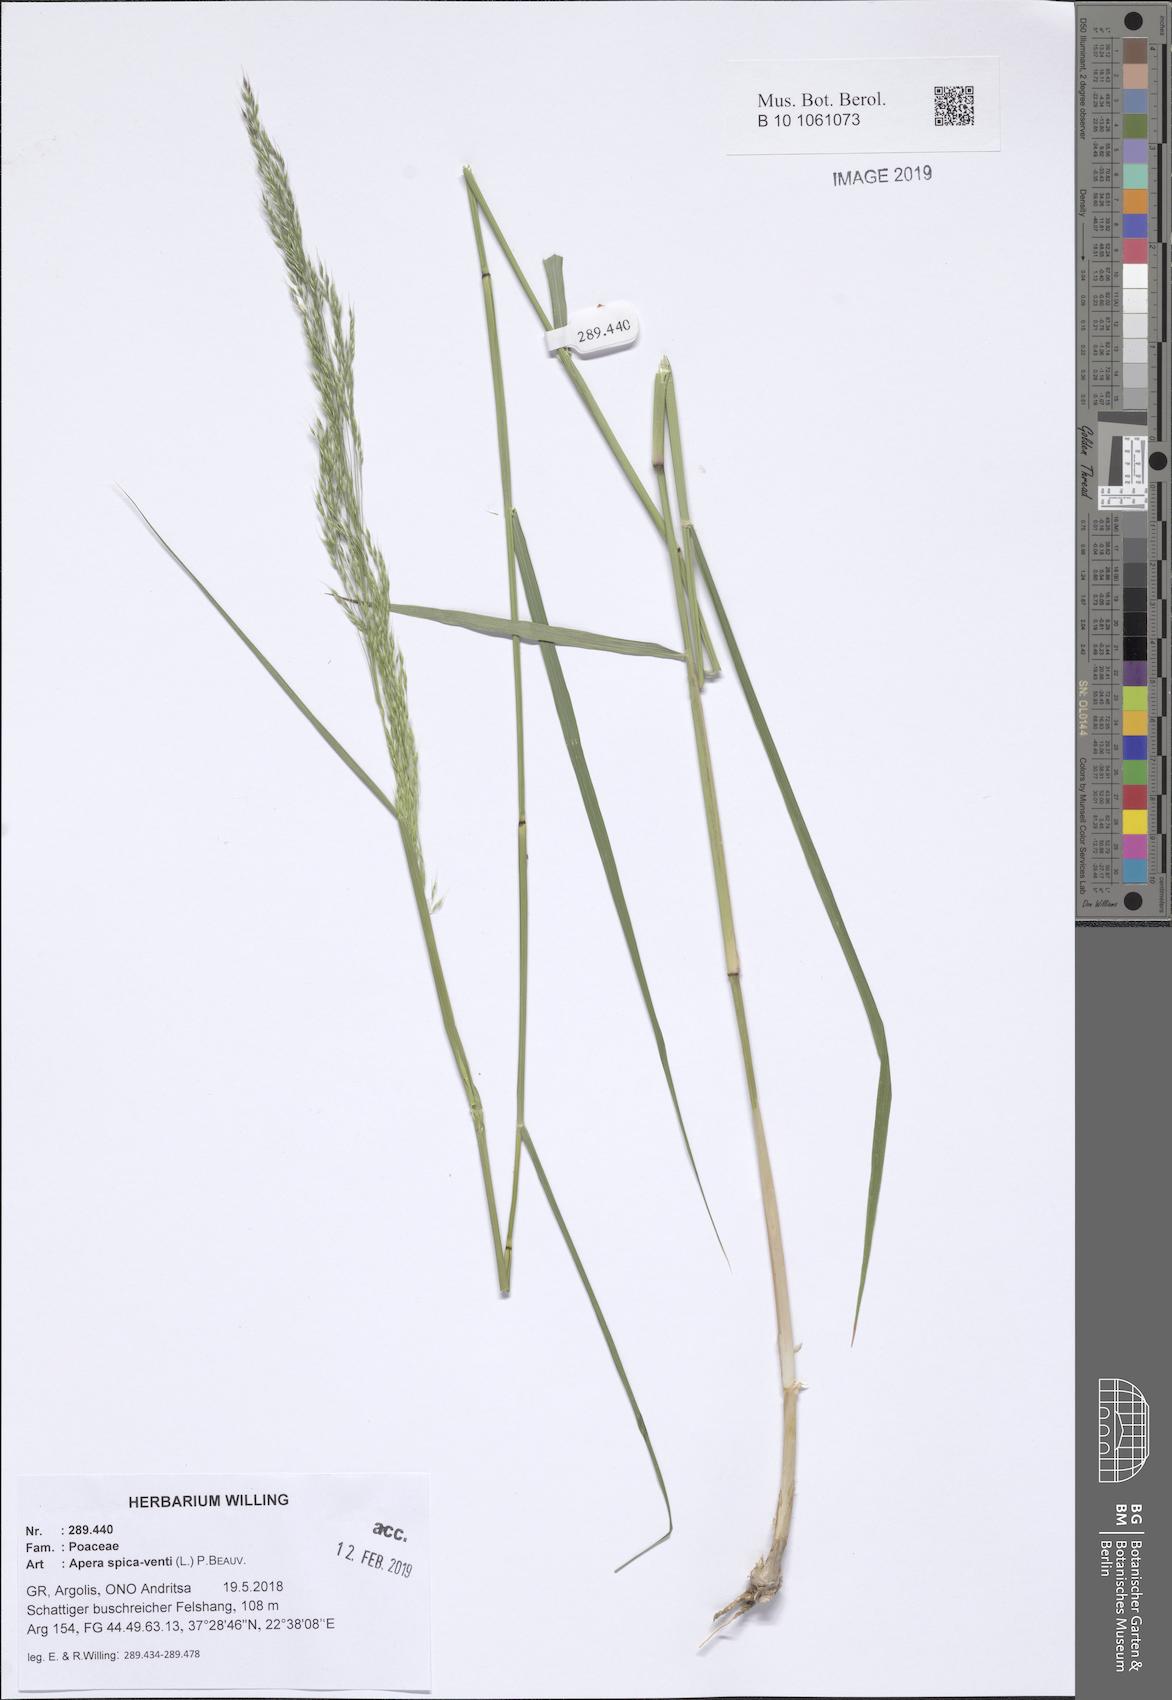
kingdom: Plantae
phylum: Tracheophyta
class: Liliopsida
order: Poales
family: Poaceae
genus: Apera
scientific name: Apera spica-venti
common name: Loose silky-bent
